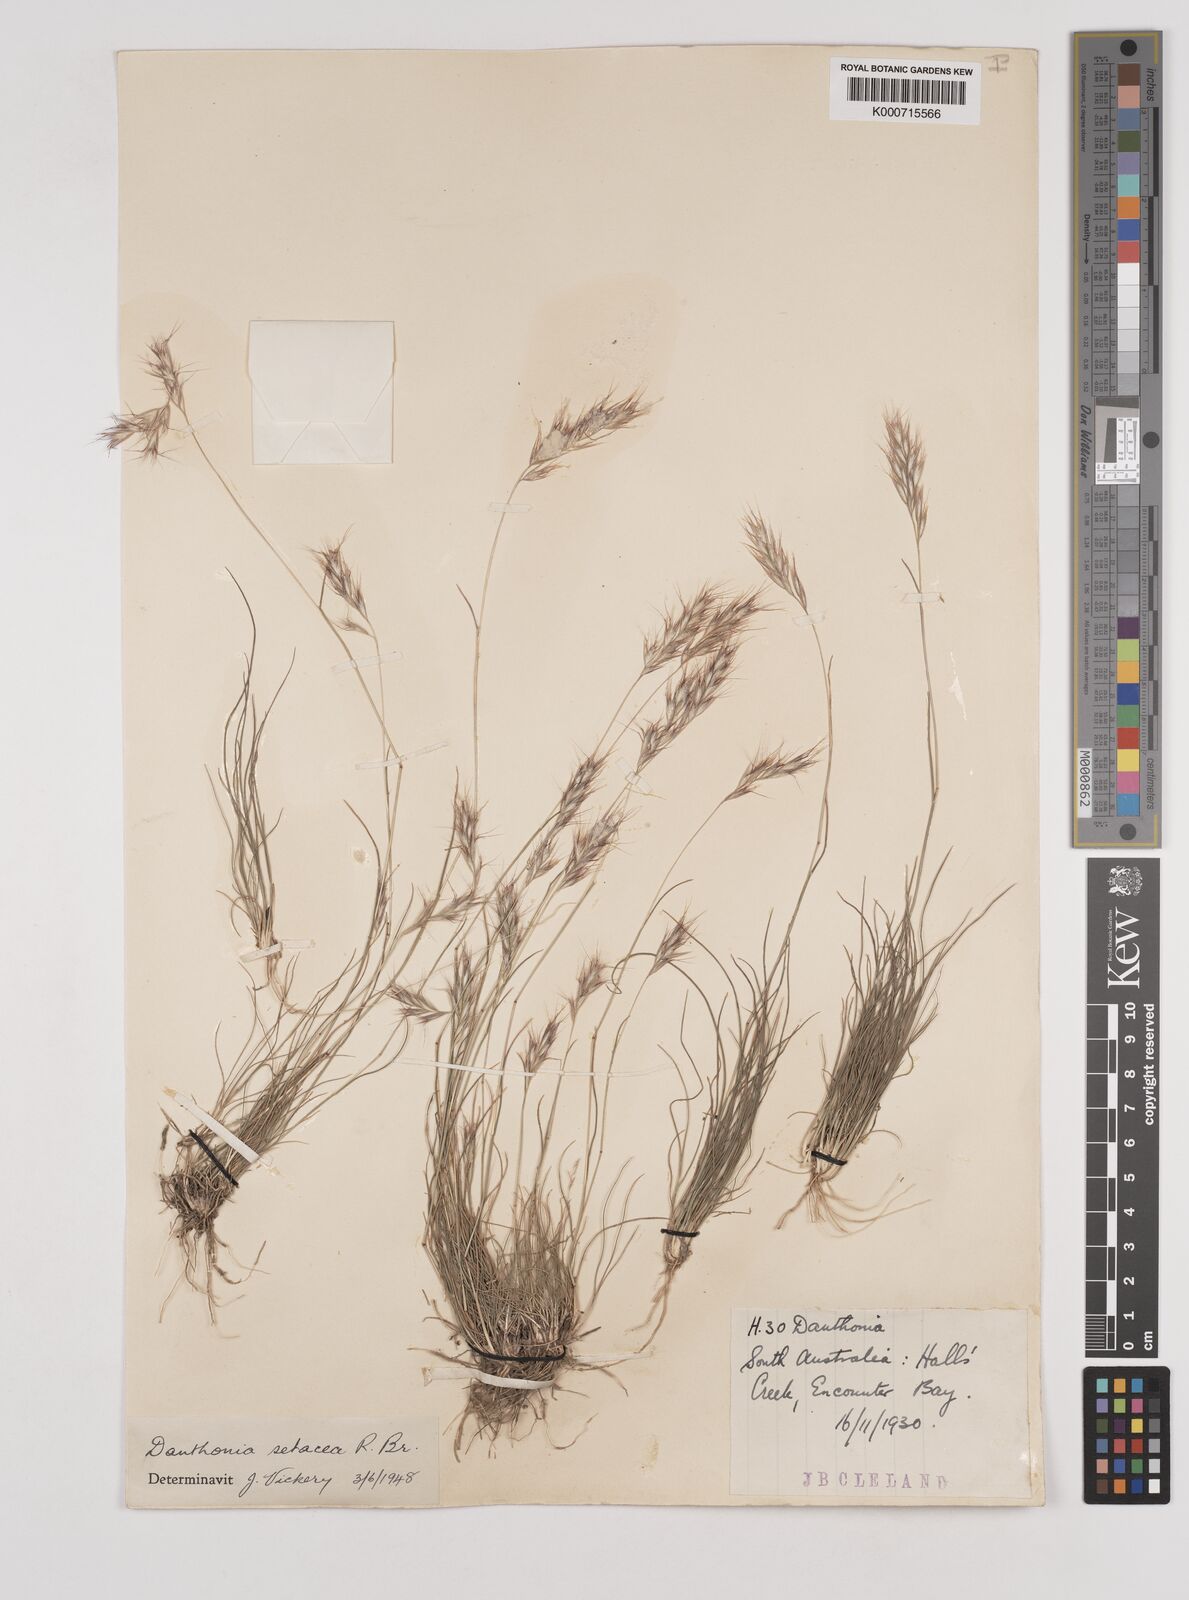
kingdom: Plantae
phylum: Tracheophyta
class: Liliopsida
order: Poales
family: Poaceae
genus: Rytidosperma
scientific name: Rytidosperma setaceum
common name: Small-flower wallaby grass
